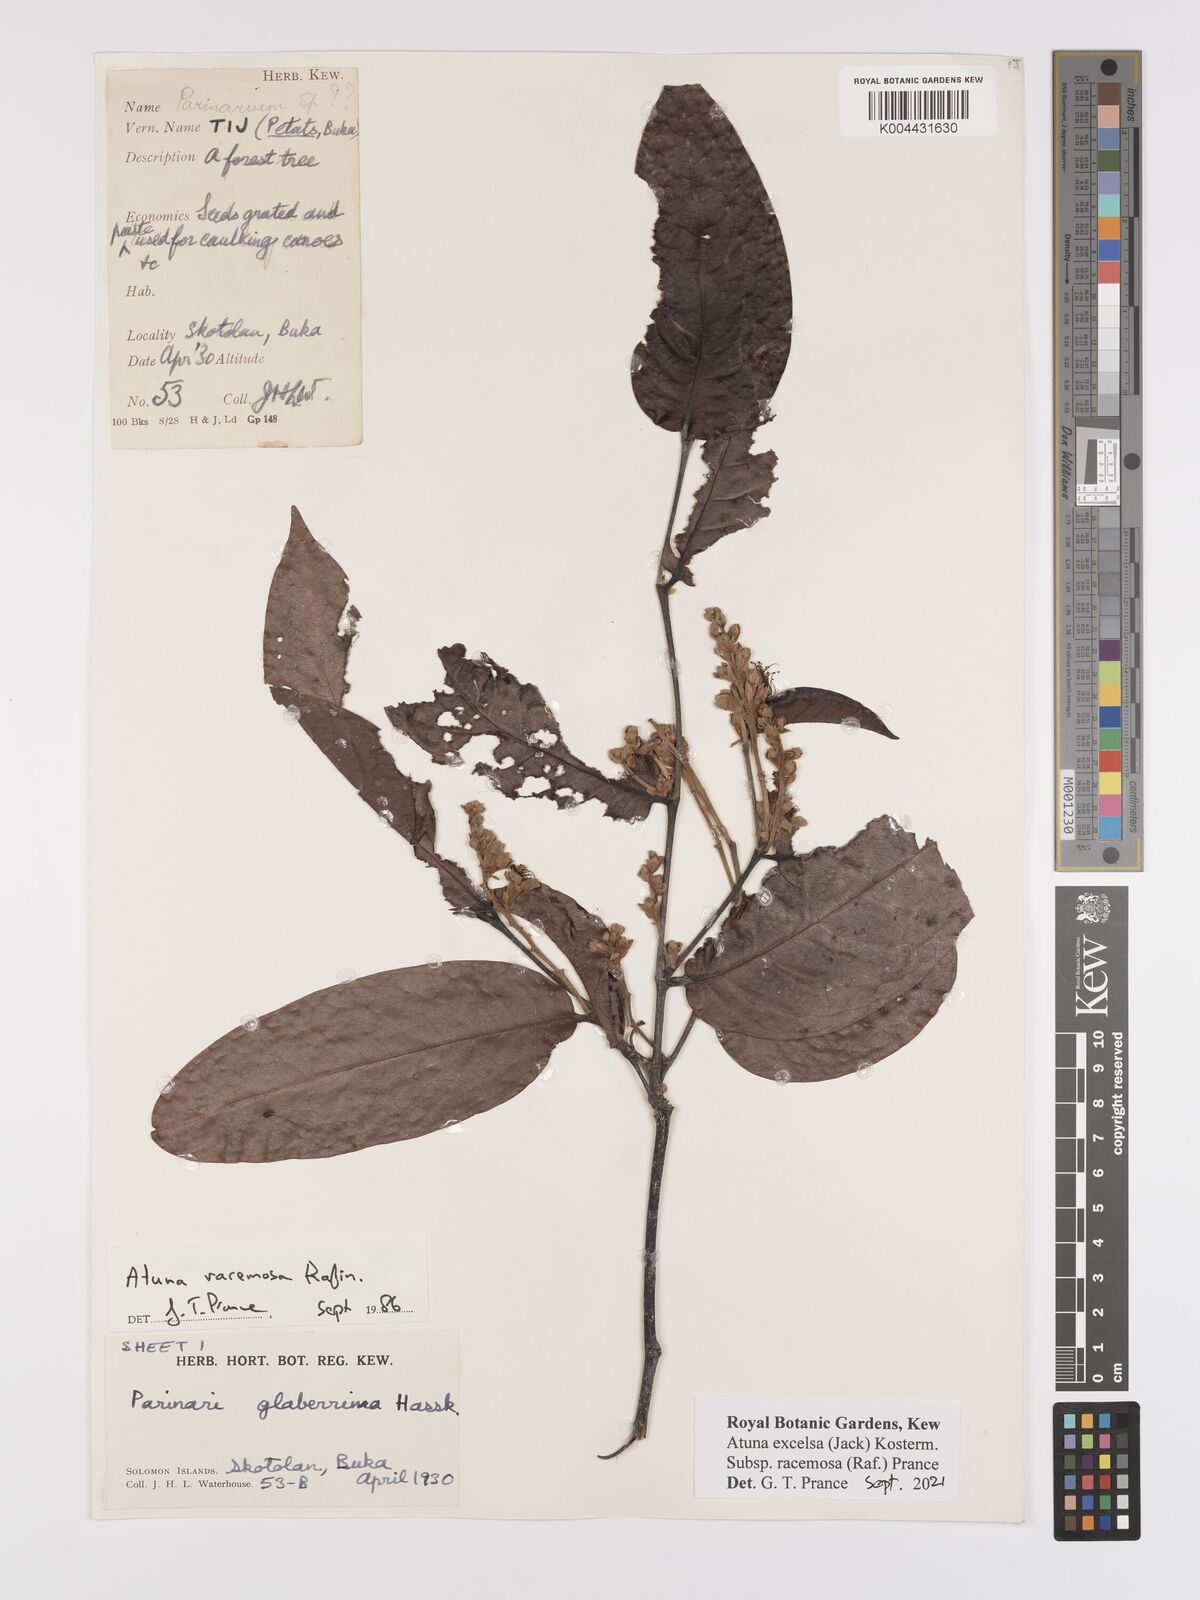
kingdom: Plantae
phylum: Tracheophyta
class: Magnoliopsida
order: Malpighiales
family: Chrysobalanaceae
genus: Atuna
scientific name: Atuna excelsa
